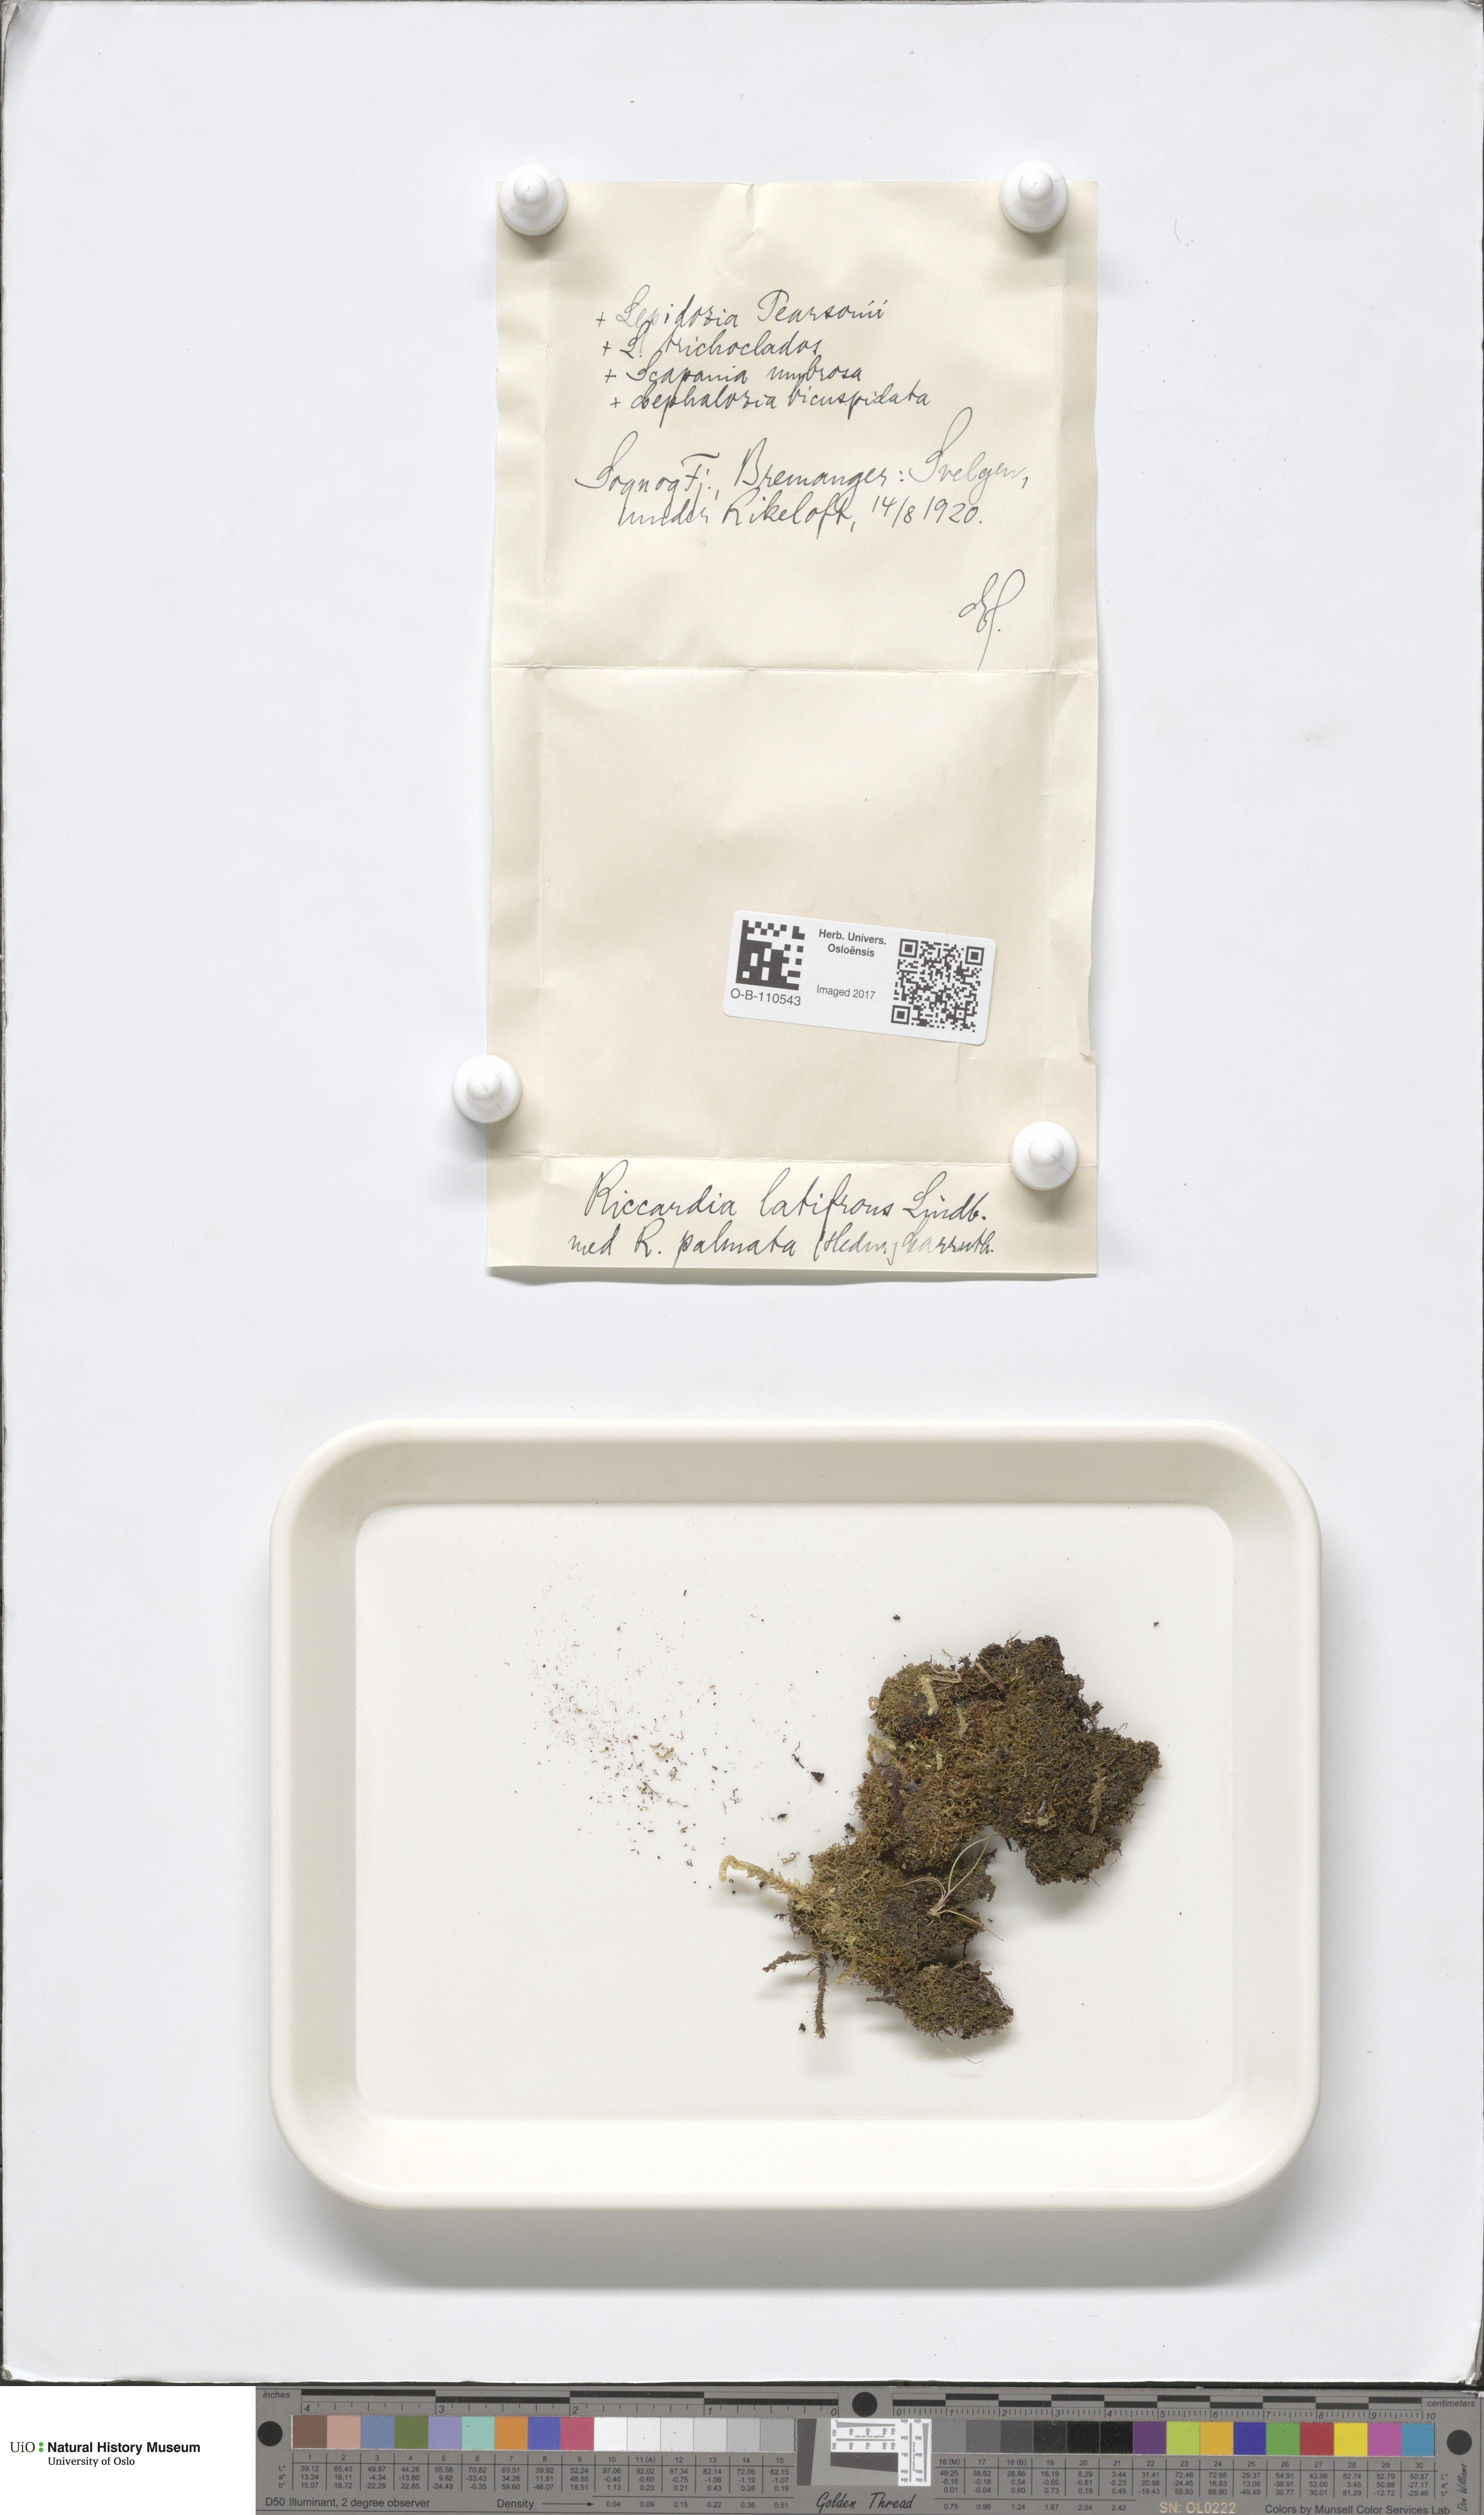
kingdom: Plantae
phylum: Marchantiophyta
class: Jungermanniopsida
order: Metzgeriales
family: Aneuraceae
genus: Riccardia
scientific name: Riccardia latifrons
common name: Bog germanderwort
